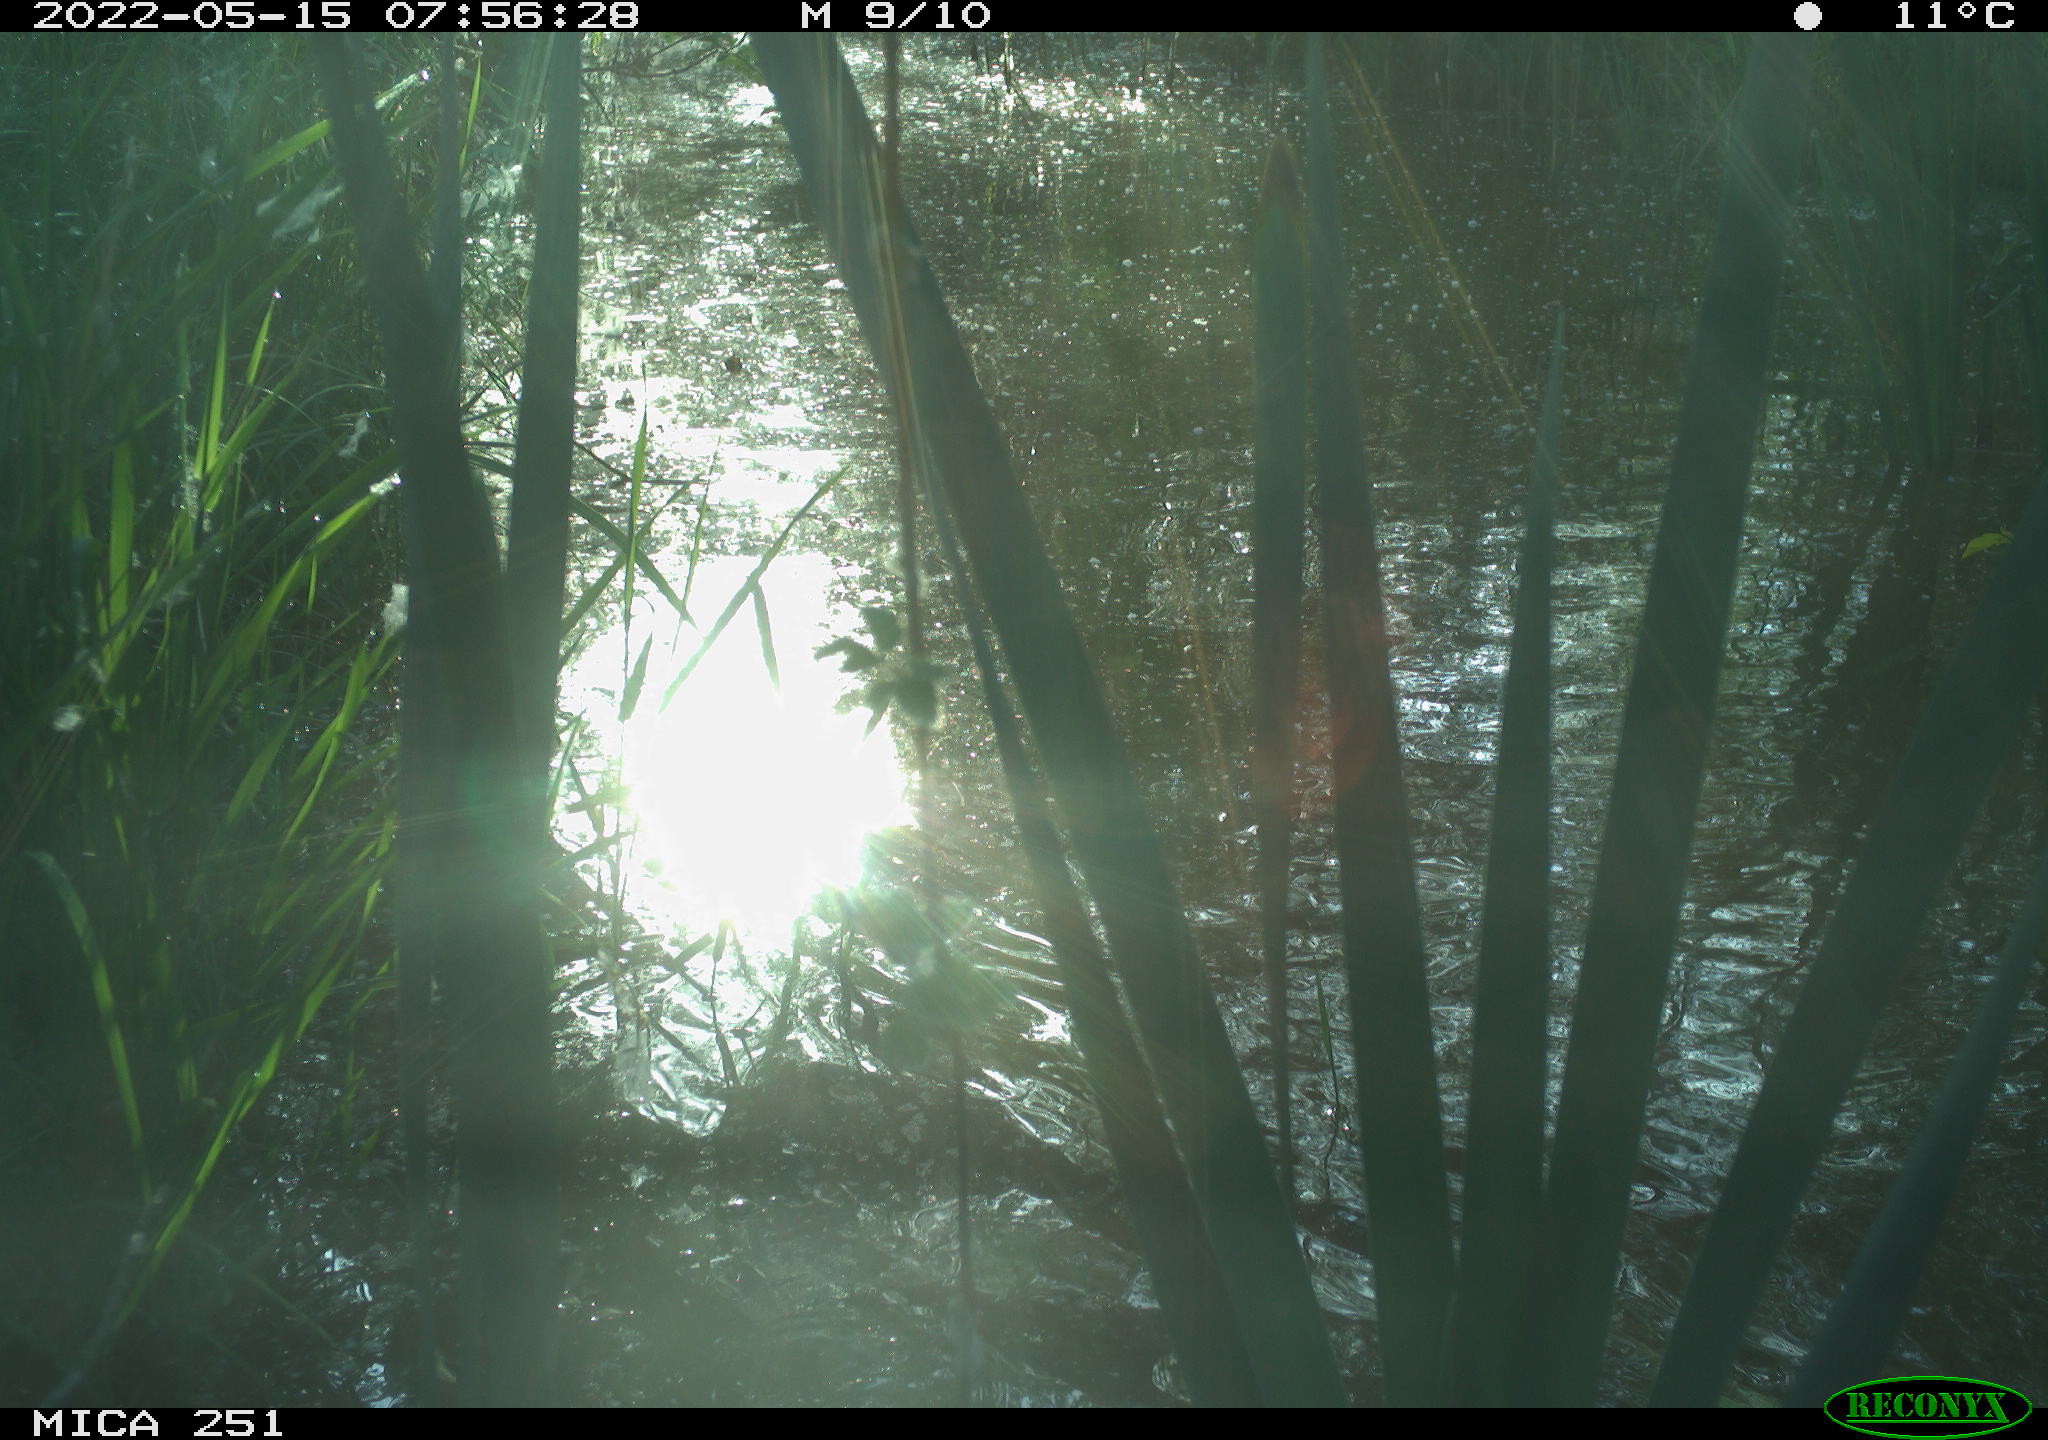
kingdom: Animalia
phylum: Chordata
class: Aves
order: Anseriformes
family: Anatidae
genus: Anas
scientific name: Anas platyrhynchos
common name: Mallard
